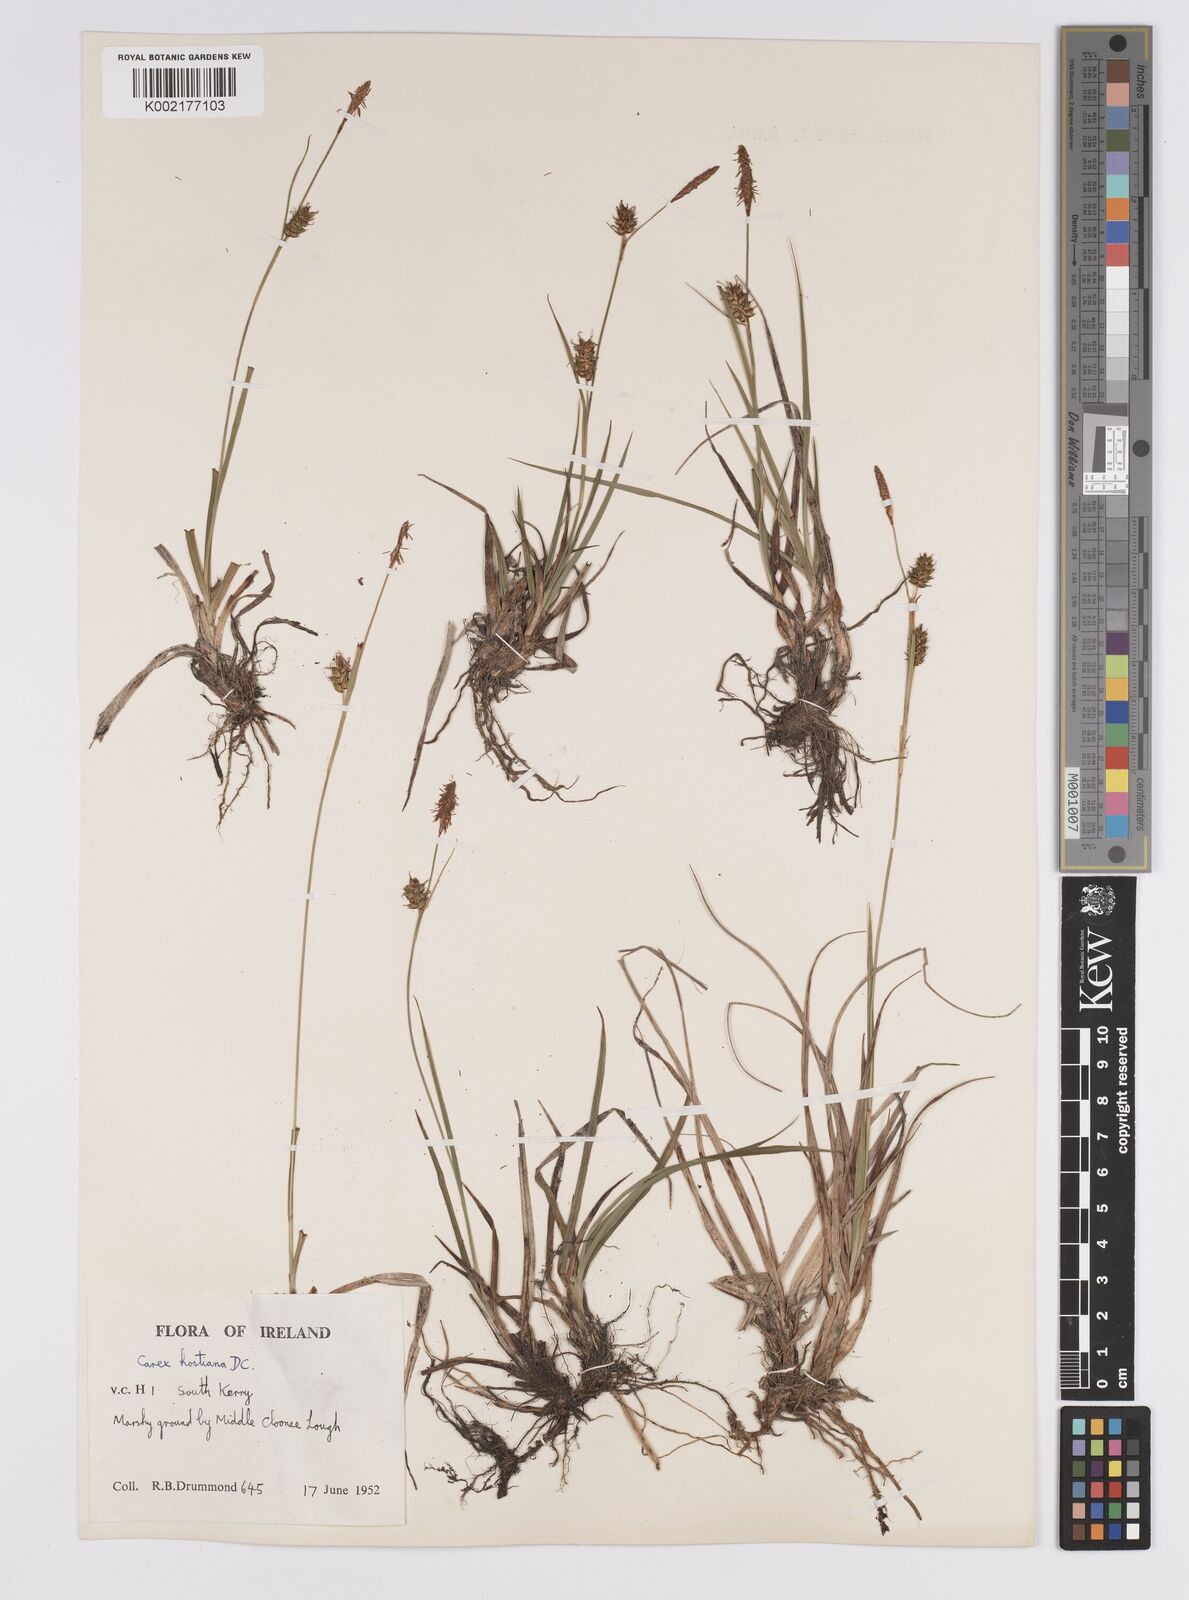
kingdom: Plantae
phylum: Tracheophyta
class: Liliopsida
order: Poales
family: Cyperaceae
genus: Carex
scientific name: Carex hostiana
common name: Tawny sedge
